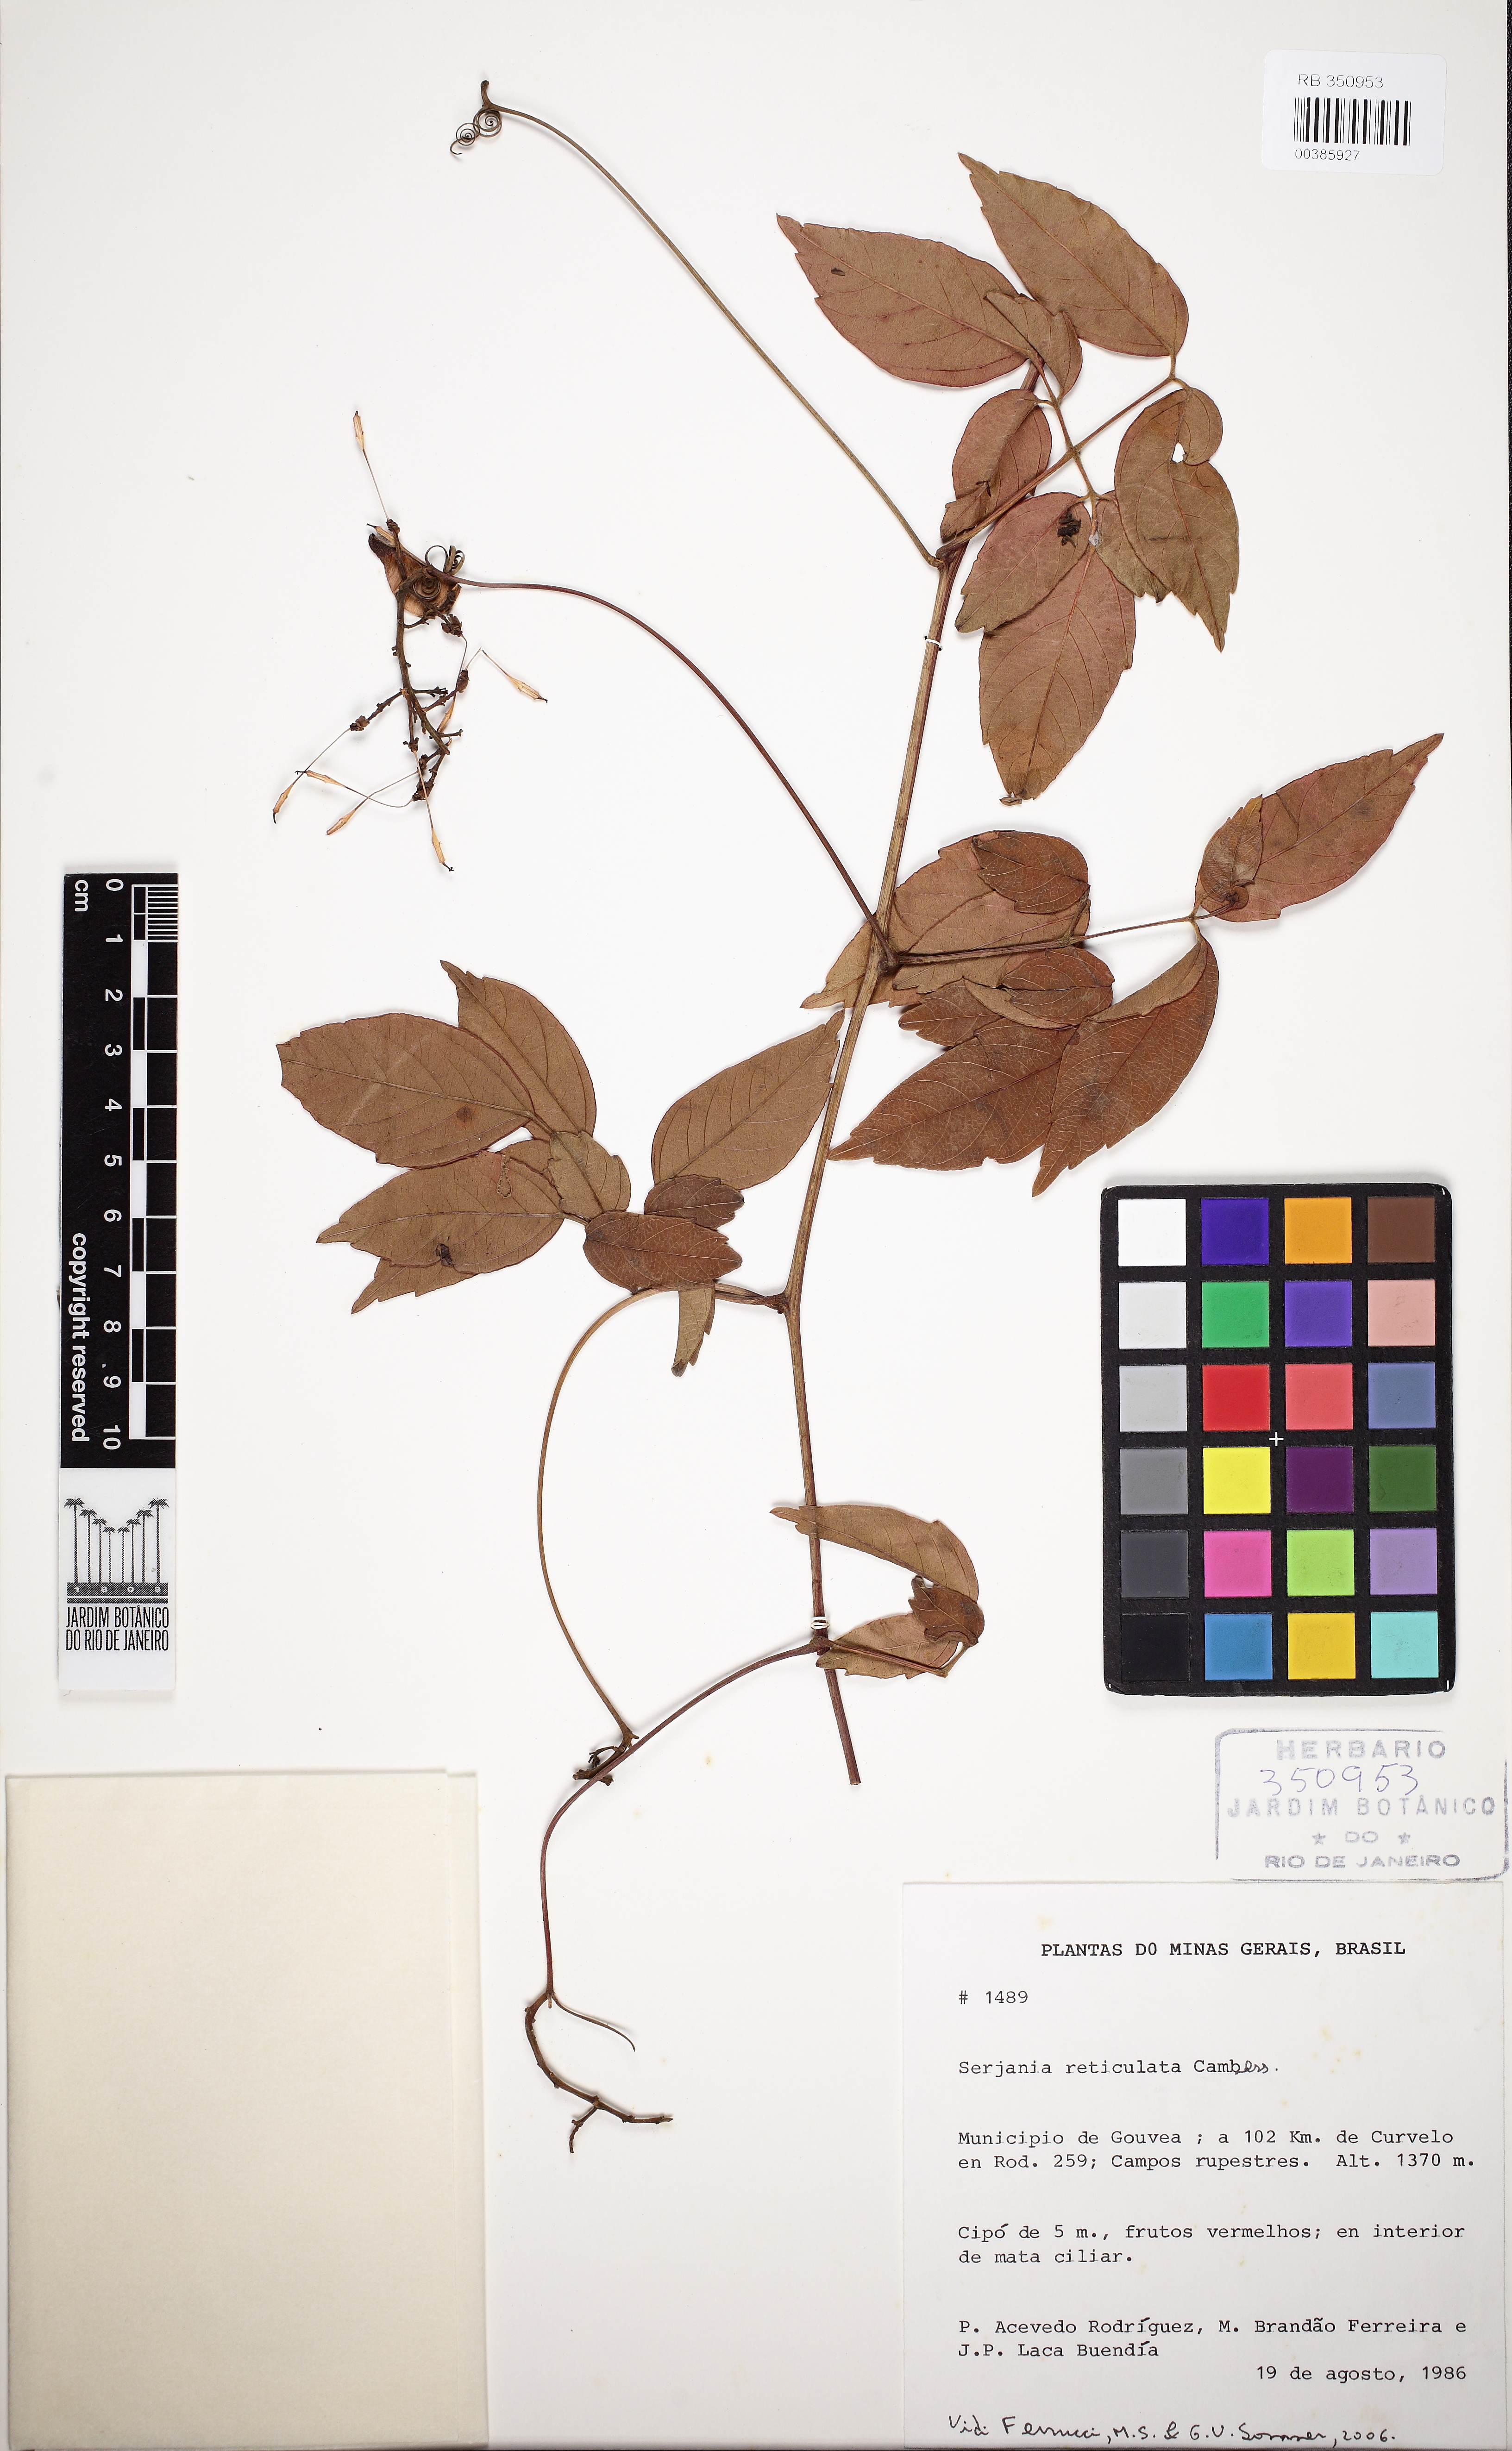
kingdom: Plantae
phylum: Tracheophyta
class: Magnoliopsida
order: Sapindales
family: Sapindaceae
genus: Serjania
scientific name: Serjania reticulata
